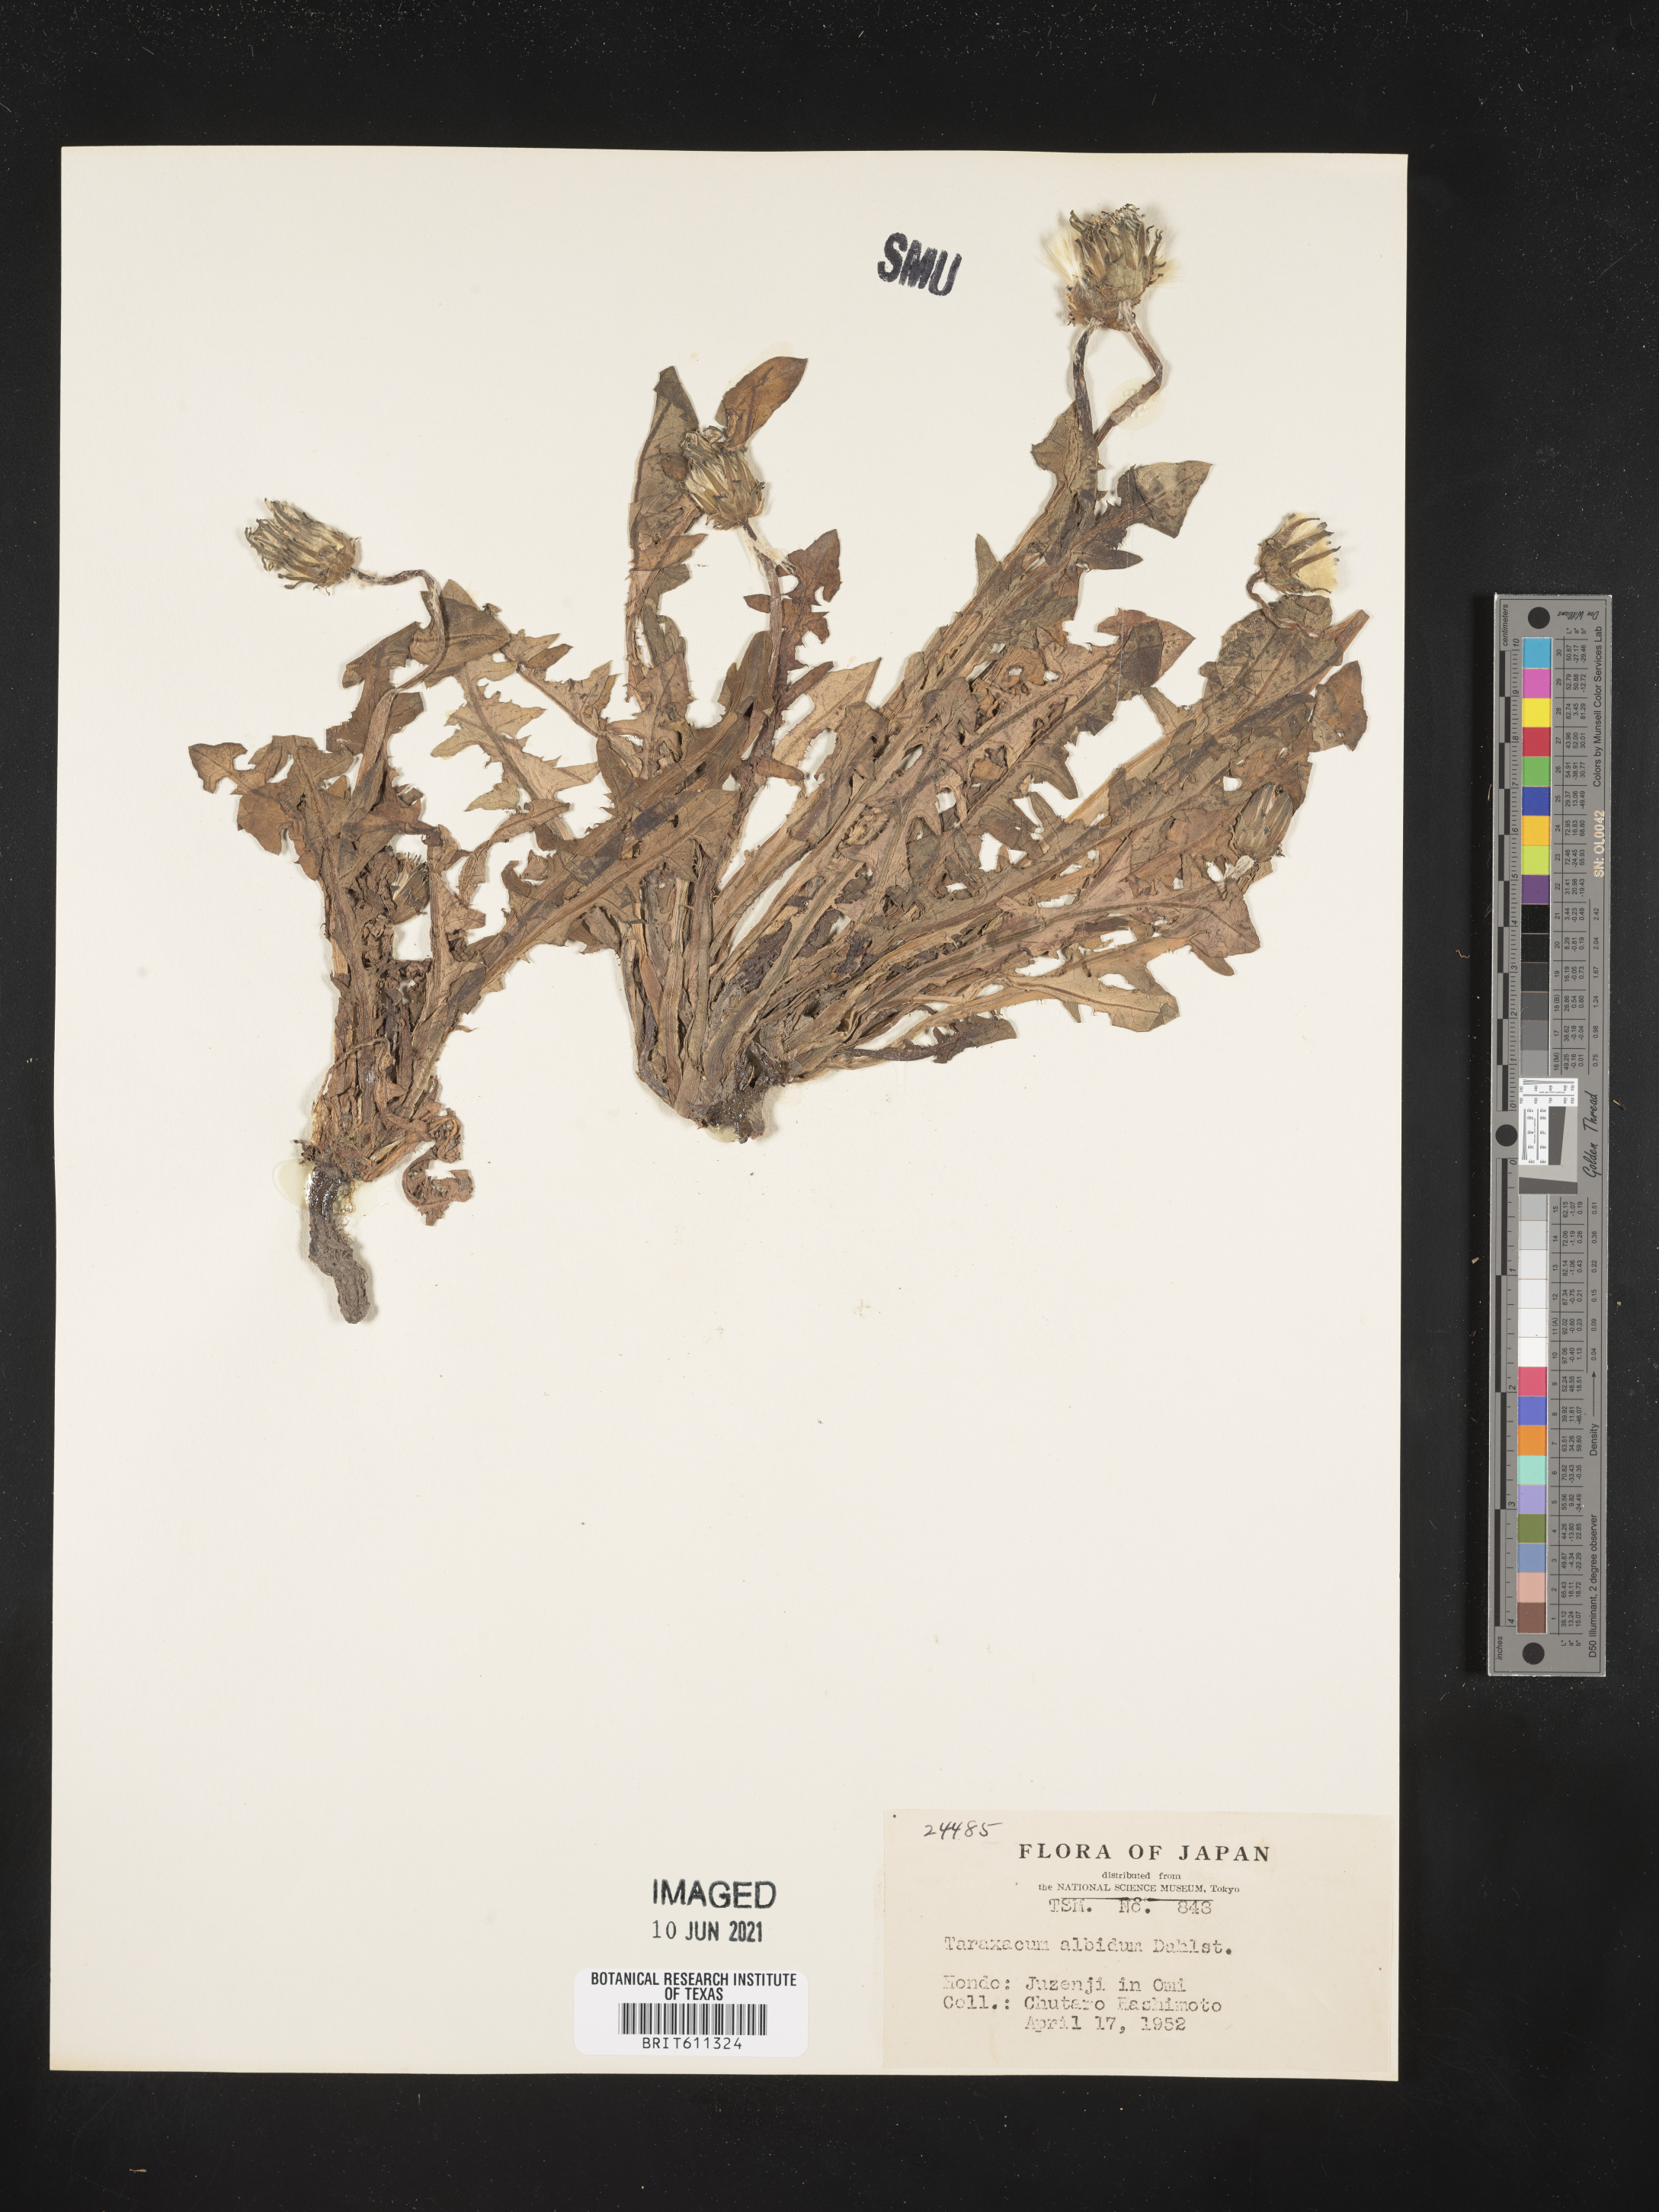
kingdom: Plantae
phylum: Tracheophyta
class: Magnoliopsida
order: Asterales
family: Asteraceae
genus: Taraxacum
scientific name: Taraxacum albidum
